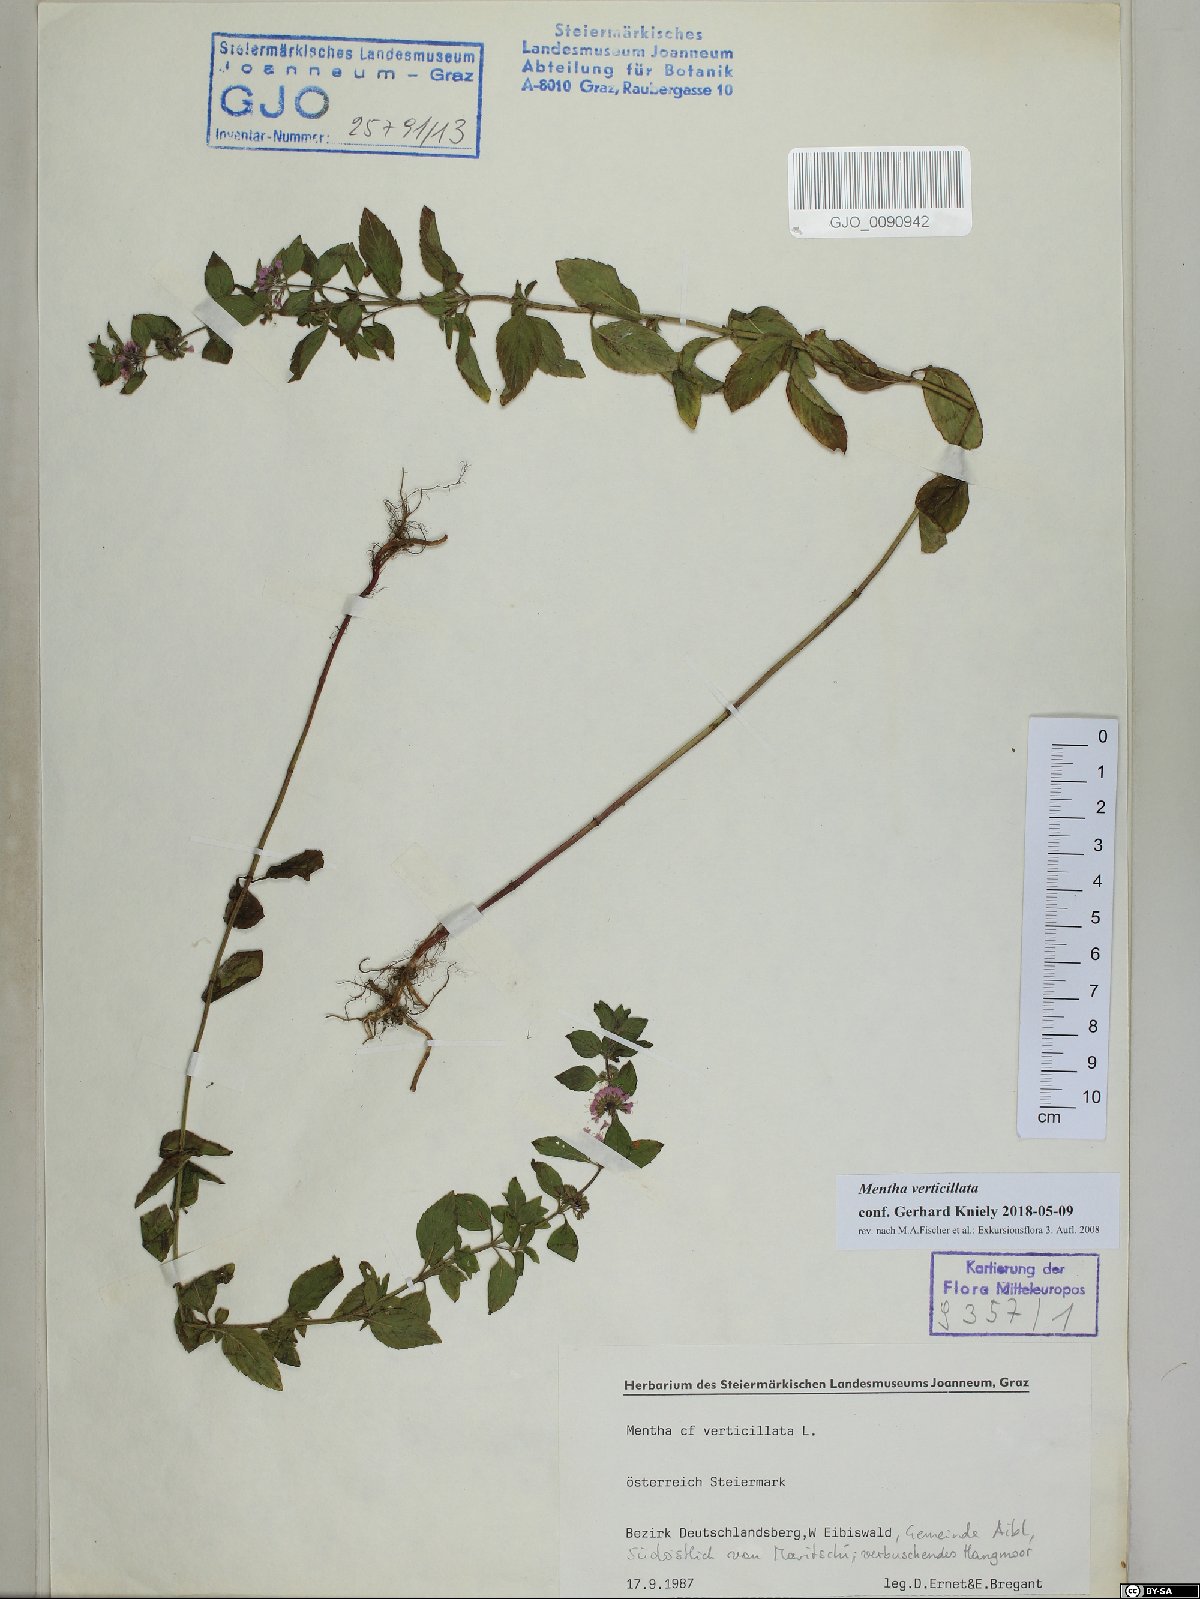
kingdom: Plantae
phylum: Tracheophyta
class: Magnoliopsida
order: Lamiales
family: Lamiaceae
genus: Mentha
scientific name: Mentha verticillata
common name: Mint
